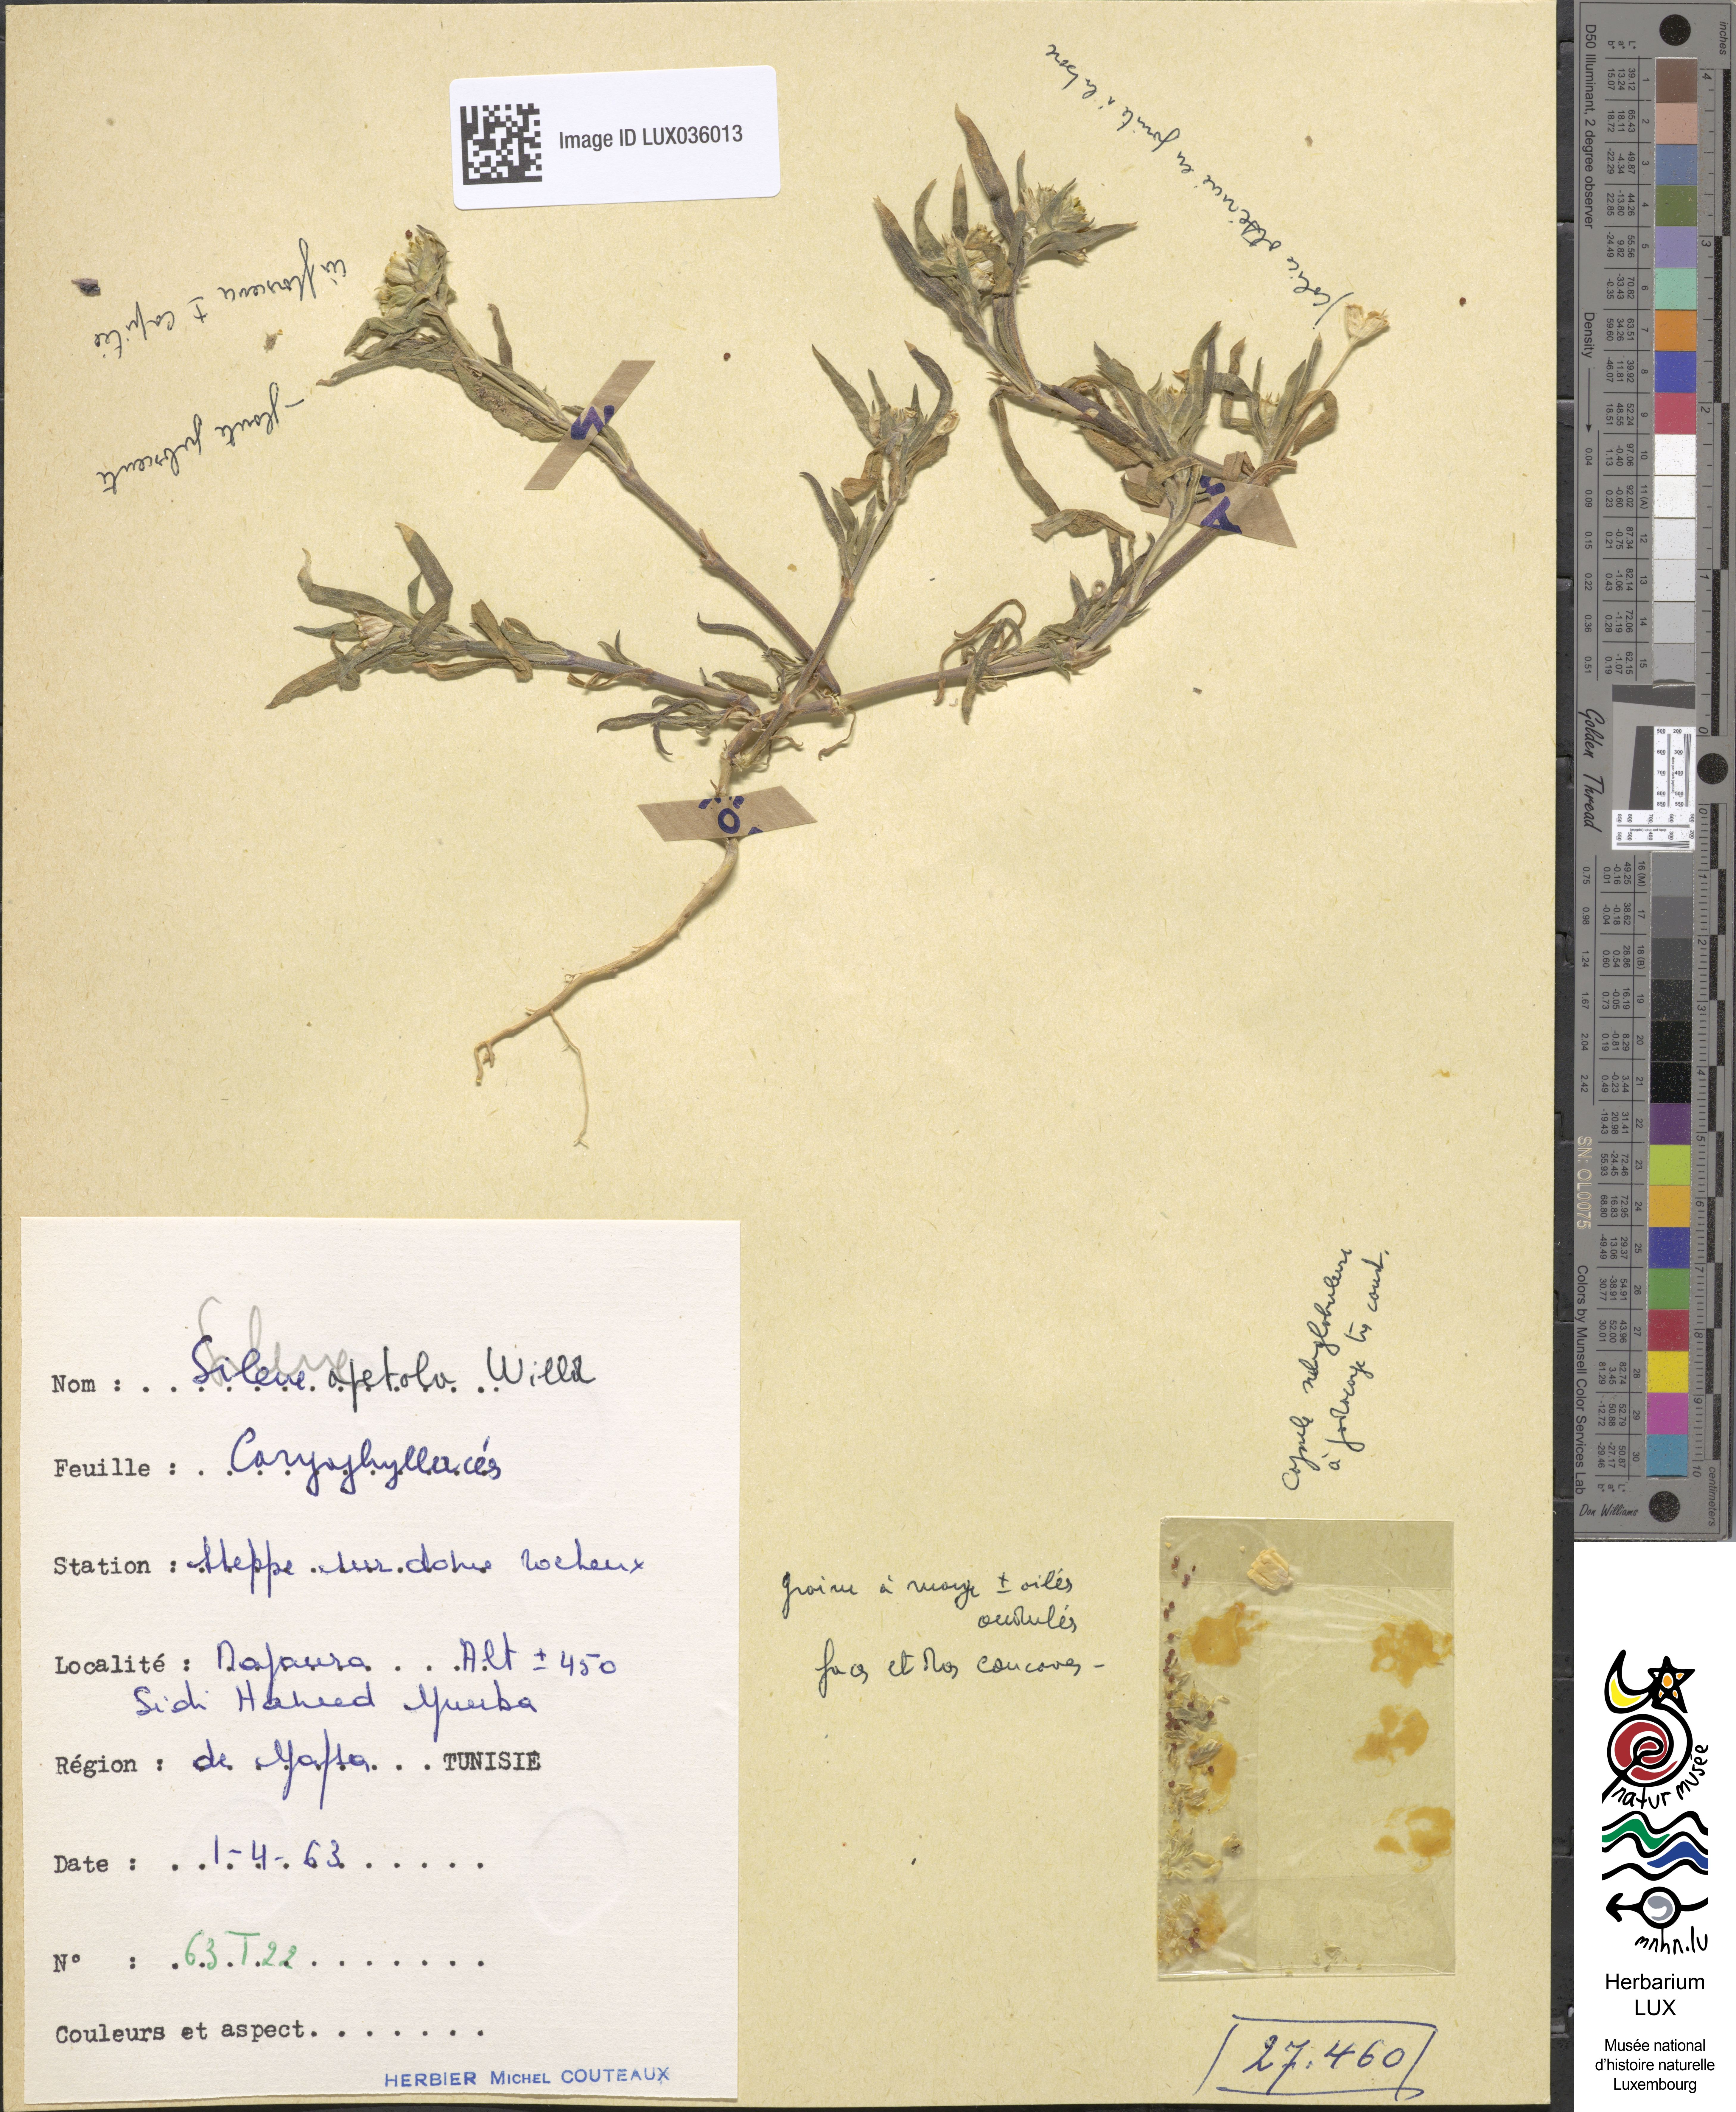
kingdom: Plantae
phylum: Tracheophyta
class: Magnoliopsida
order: Caryophyllales
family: Caryophyllaceae
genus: Silene
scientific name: Silene apetala
